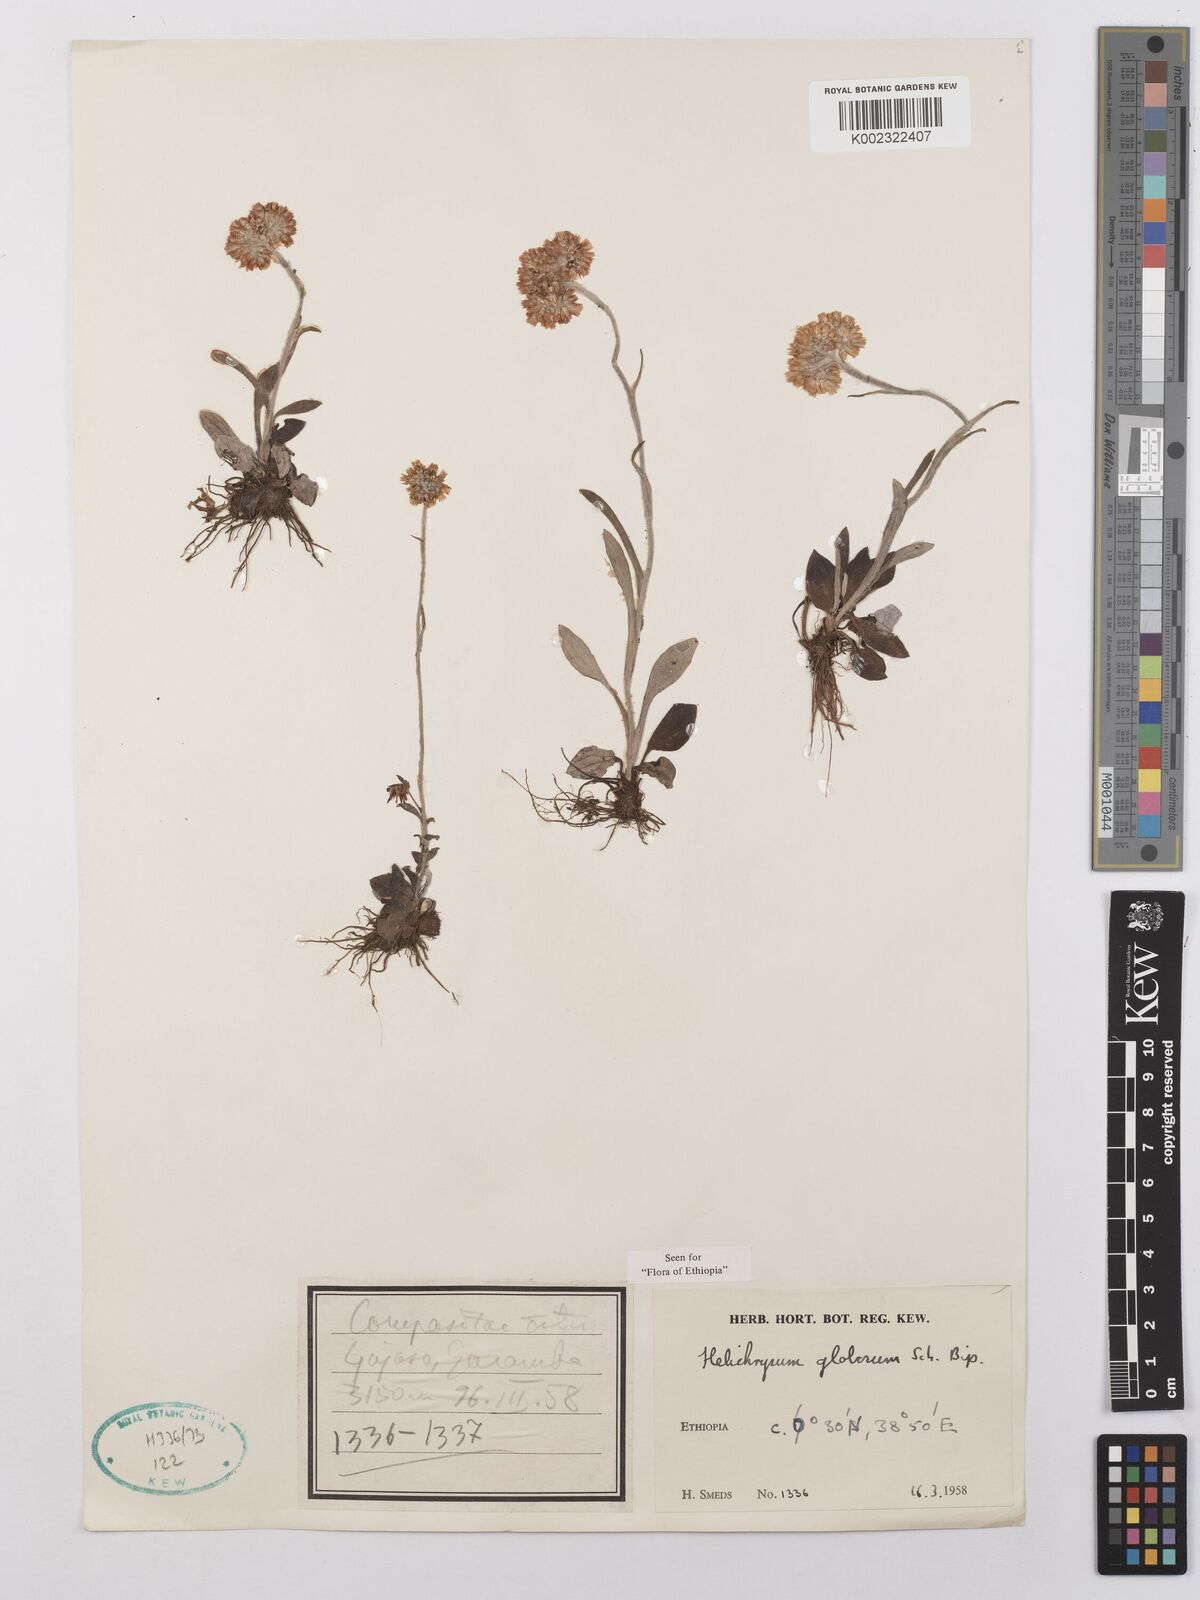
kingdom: Plantae
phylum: Tracheophyta
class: Magnoliopsida
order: Asterales
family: Asteraceae
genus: Helichrysum
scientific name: Helichrysum globosum
